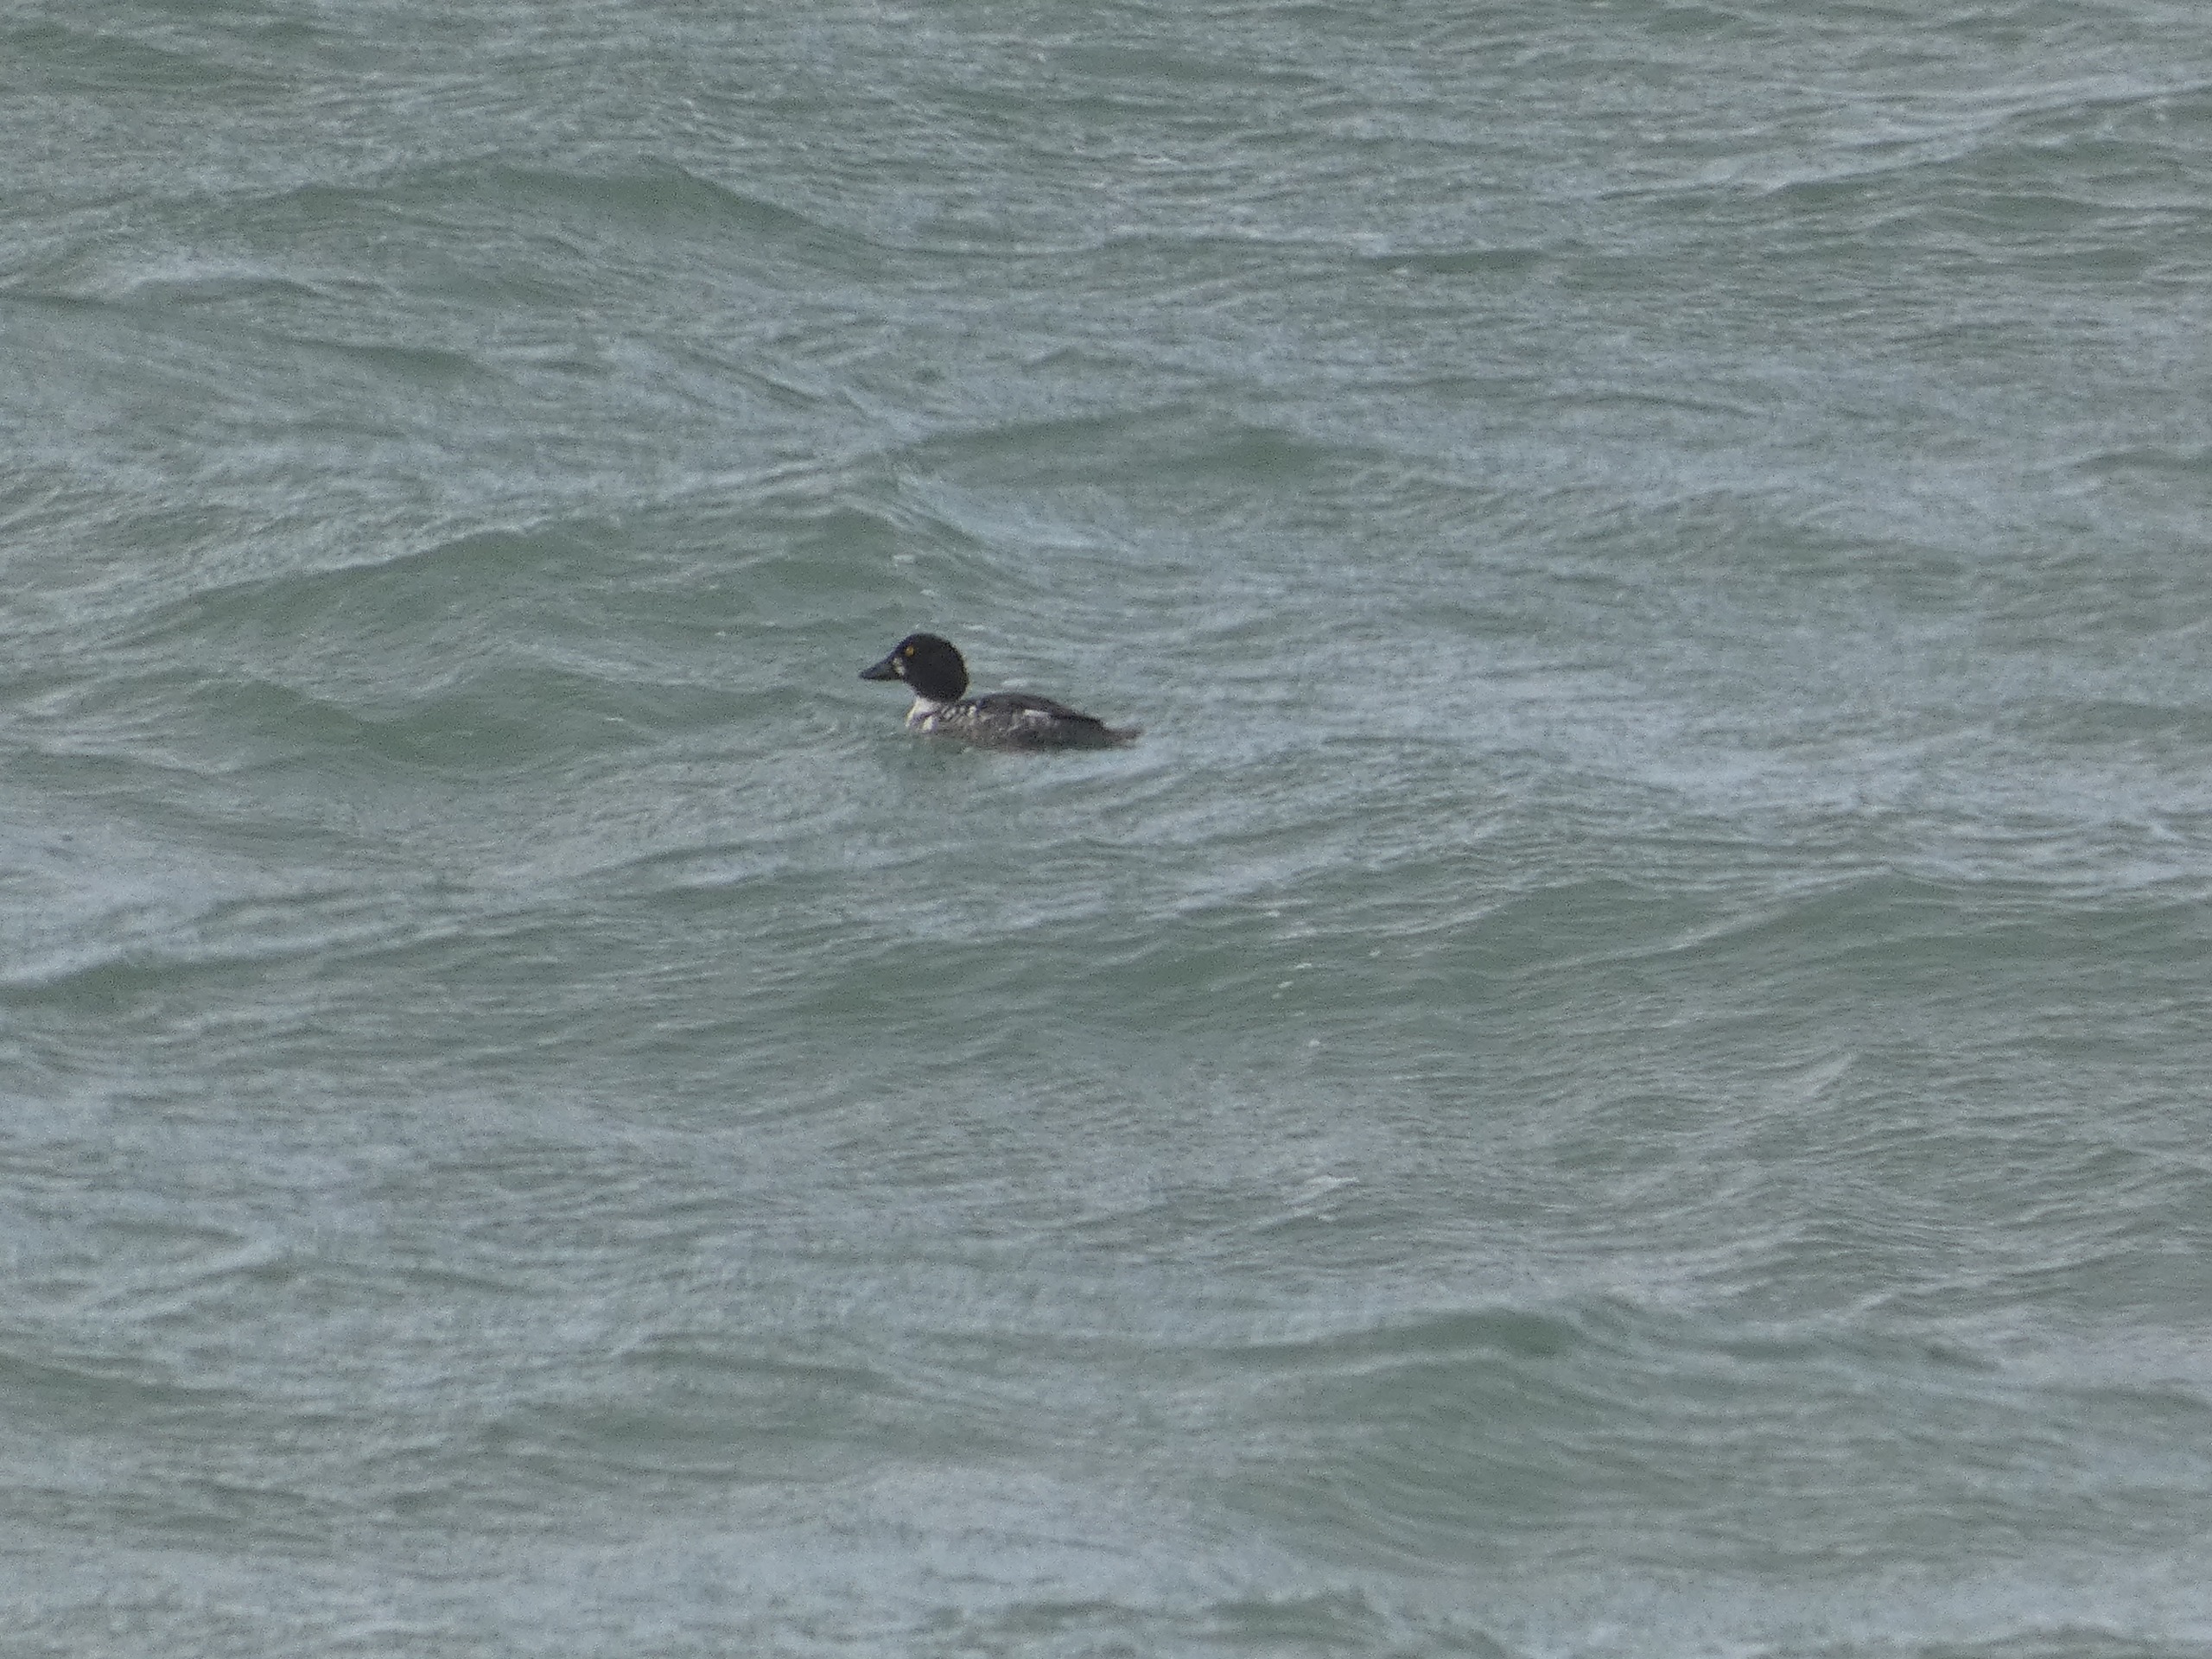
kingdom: Animalia
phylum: Chordata
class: Aves
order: Anseriformes
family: Anatidae
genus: Bucephala
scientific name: Bucephala clangula
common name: Hvinand
